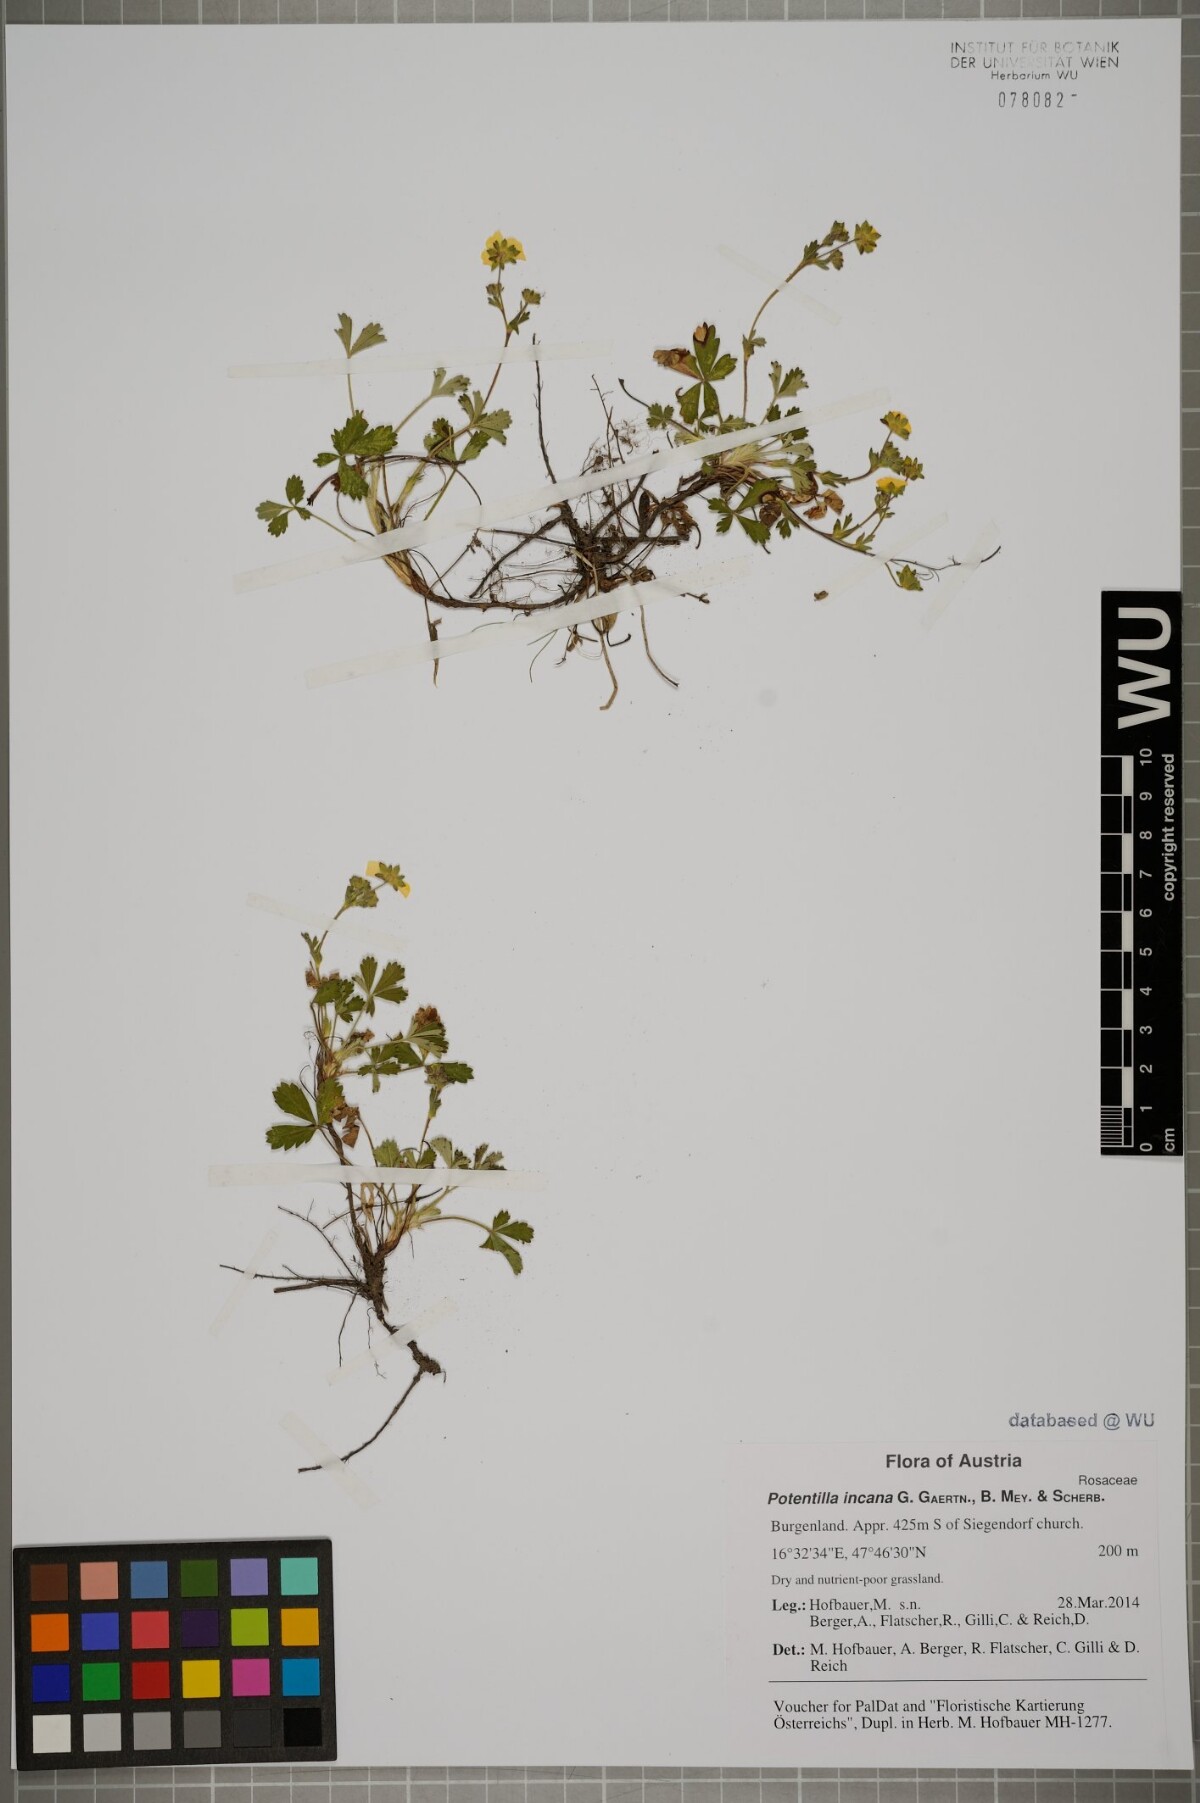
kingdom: Plantae
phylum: Tracheophyta
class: Magnoliopsida
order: Rosales
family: Rosaceae
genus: Potentilla
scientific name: Potentilla cinerea
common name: Ashy cinquefoil
